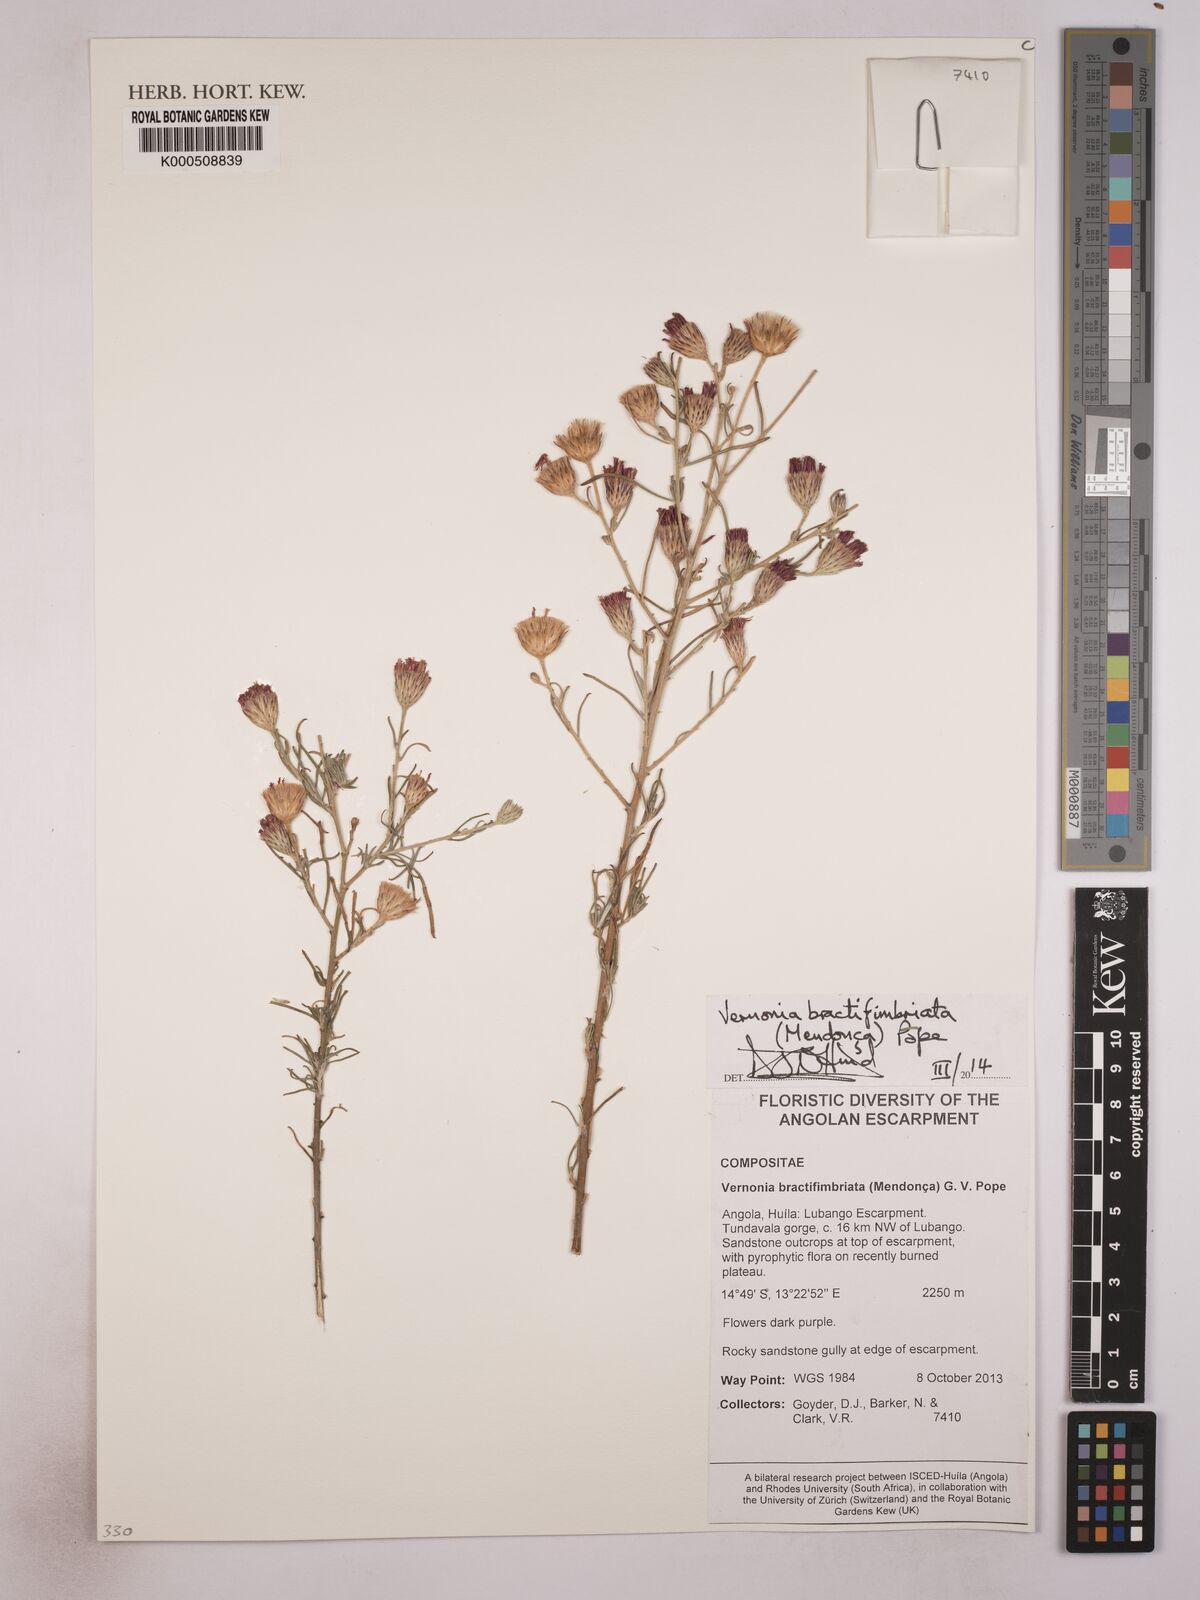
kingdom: Plantae
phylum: Tracheophyta
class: Magnoliopsida
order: Asterales
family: Asteraceae
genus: Crystallopollen
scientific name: Crystallopollen angustifolium
